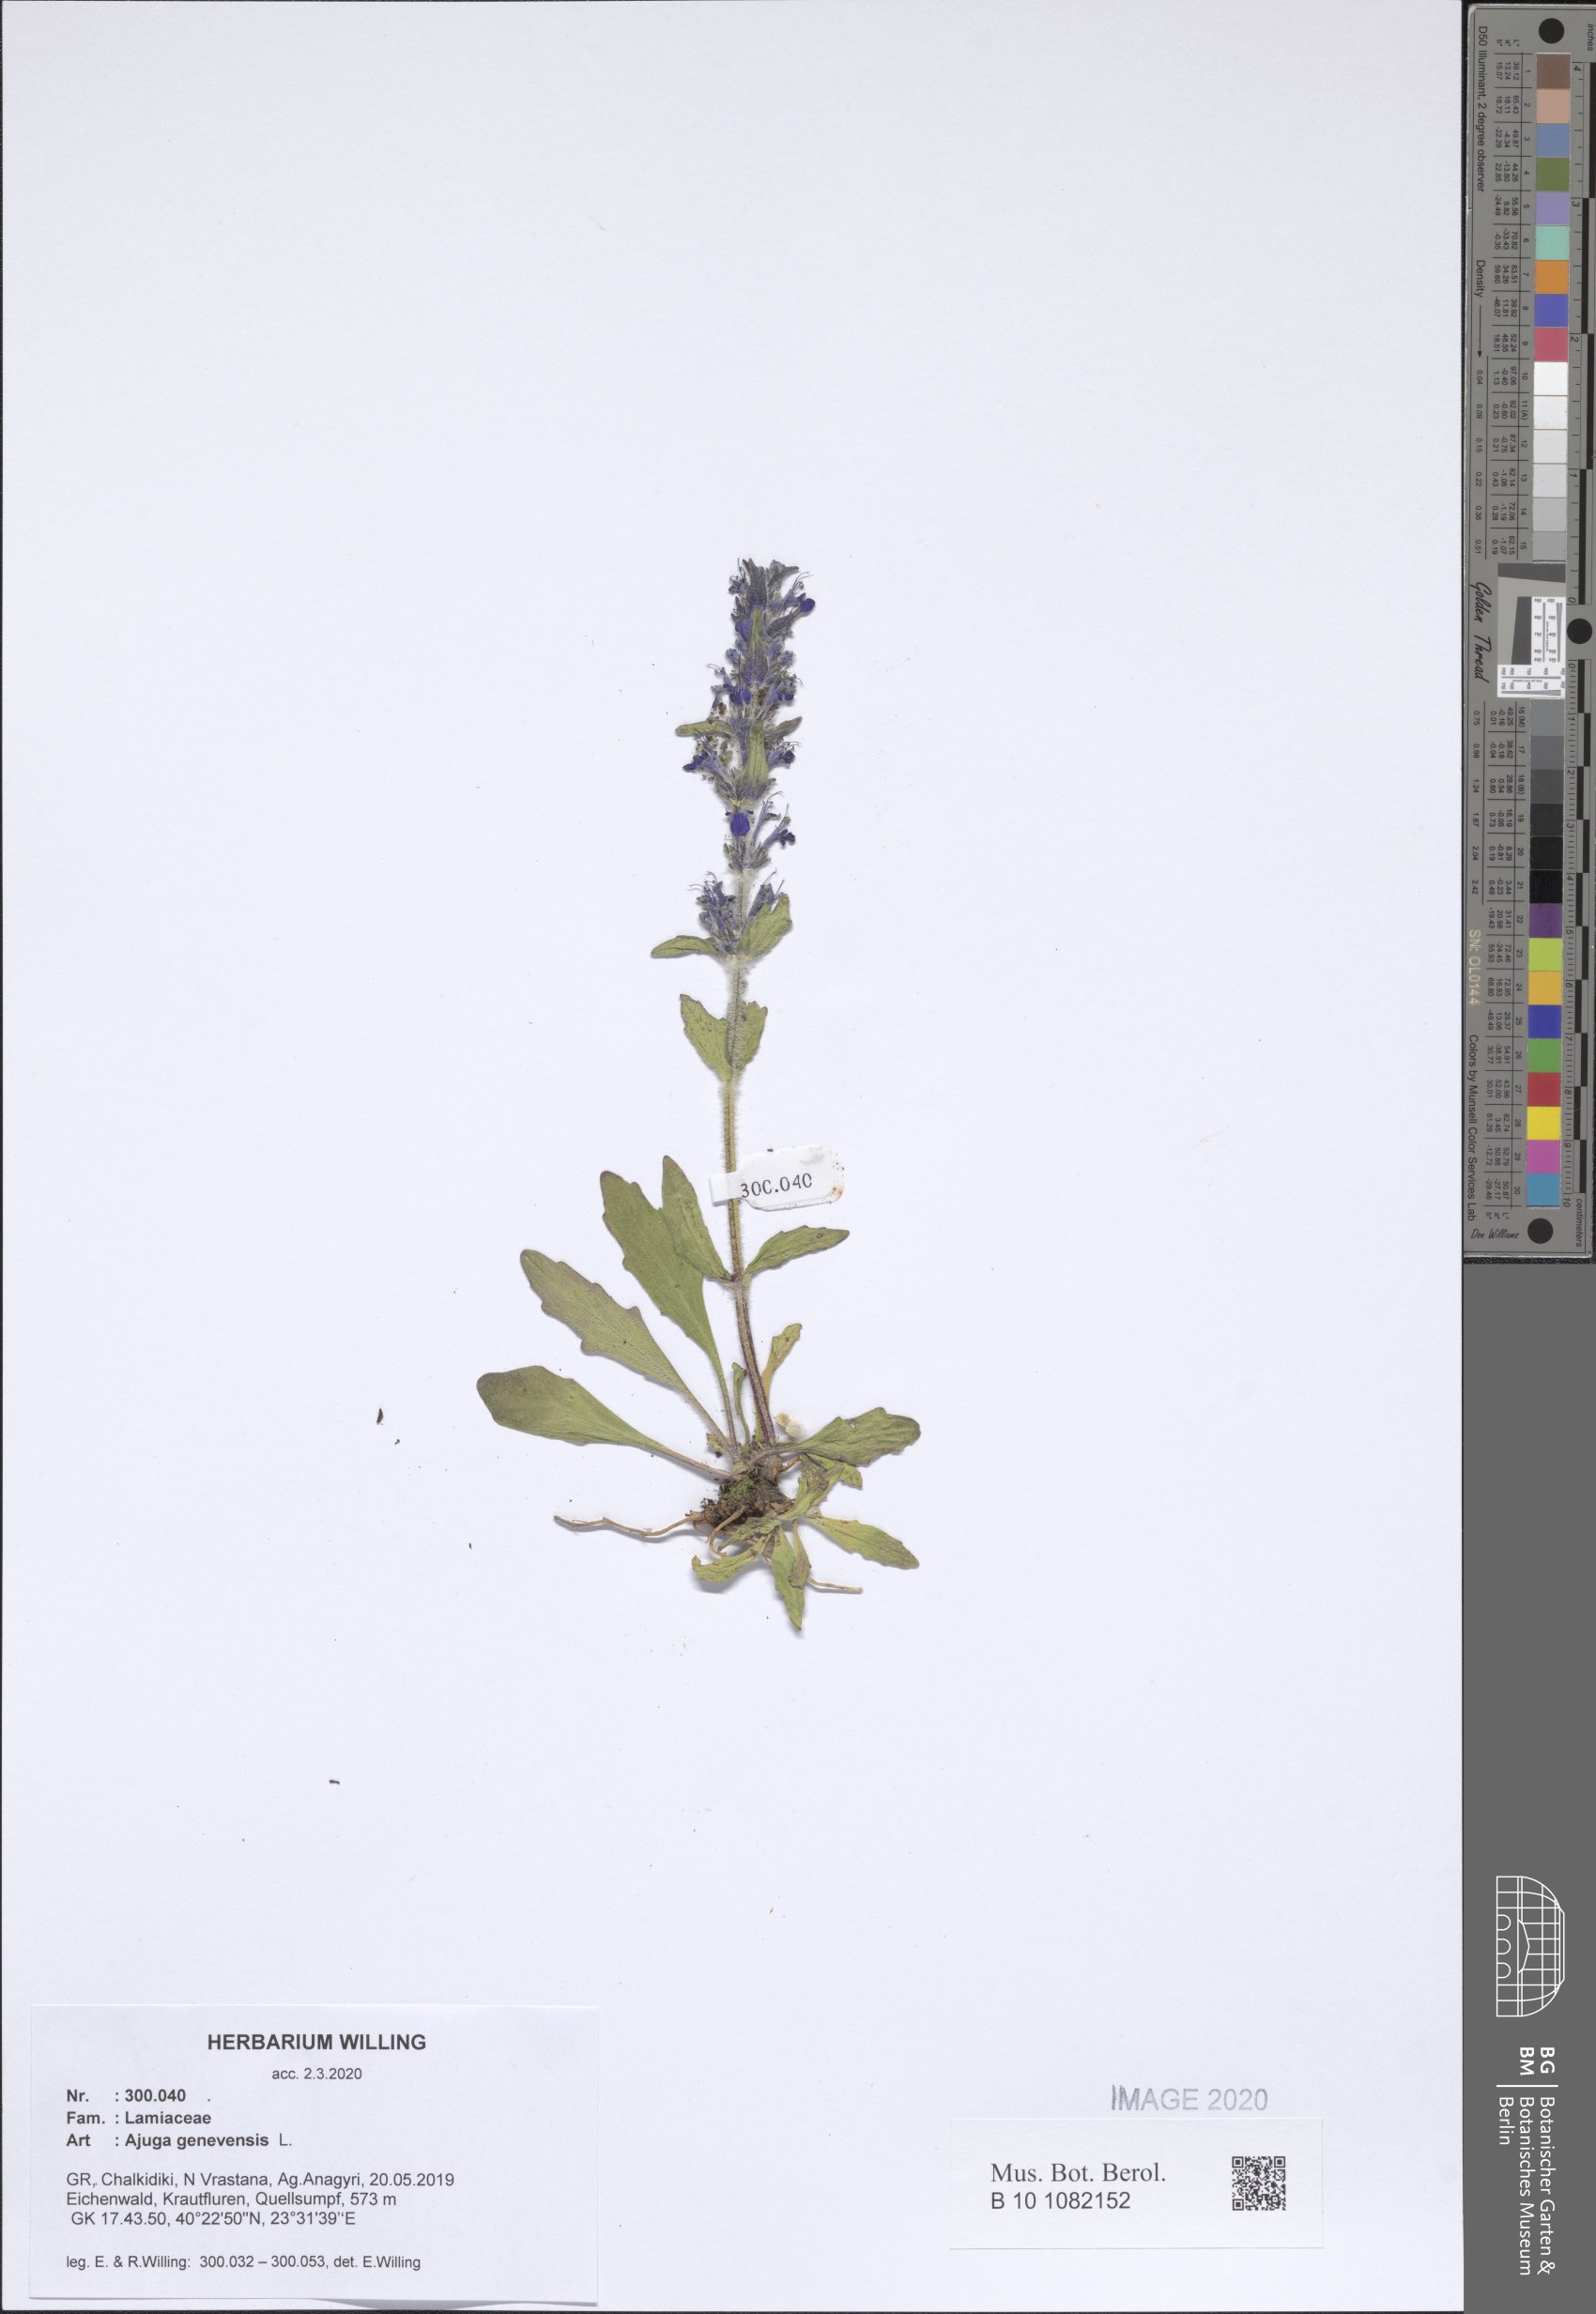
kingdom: Plantae
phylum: Tracheophyta
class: Magnoliopsida
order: Lamiales
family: Lamiaceae
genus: Ajuga
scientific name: Ajuga genevensis
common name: Blue bugle
